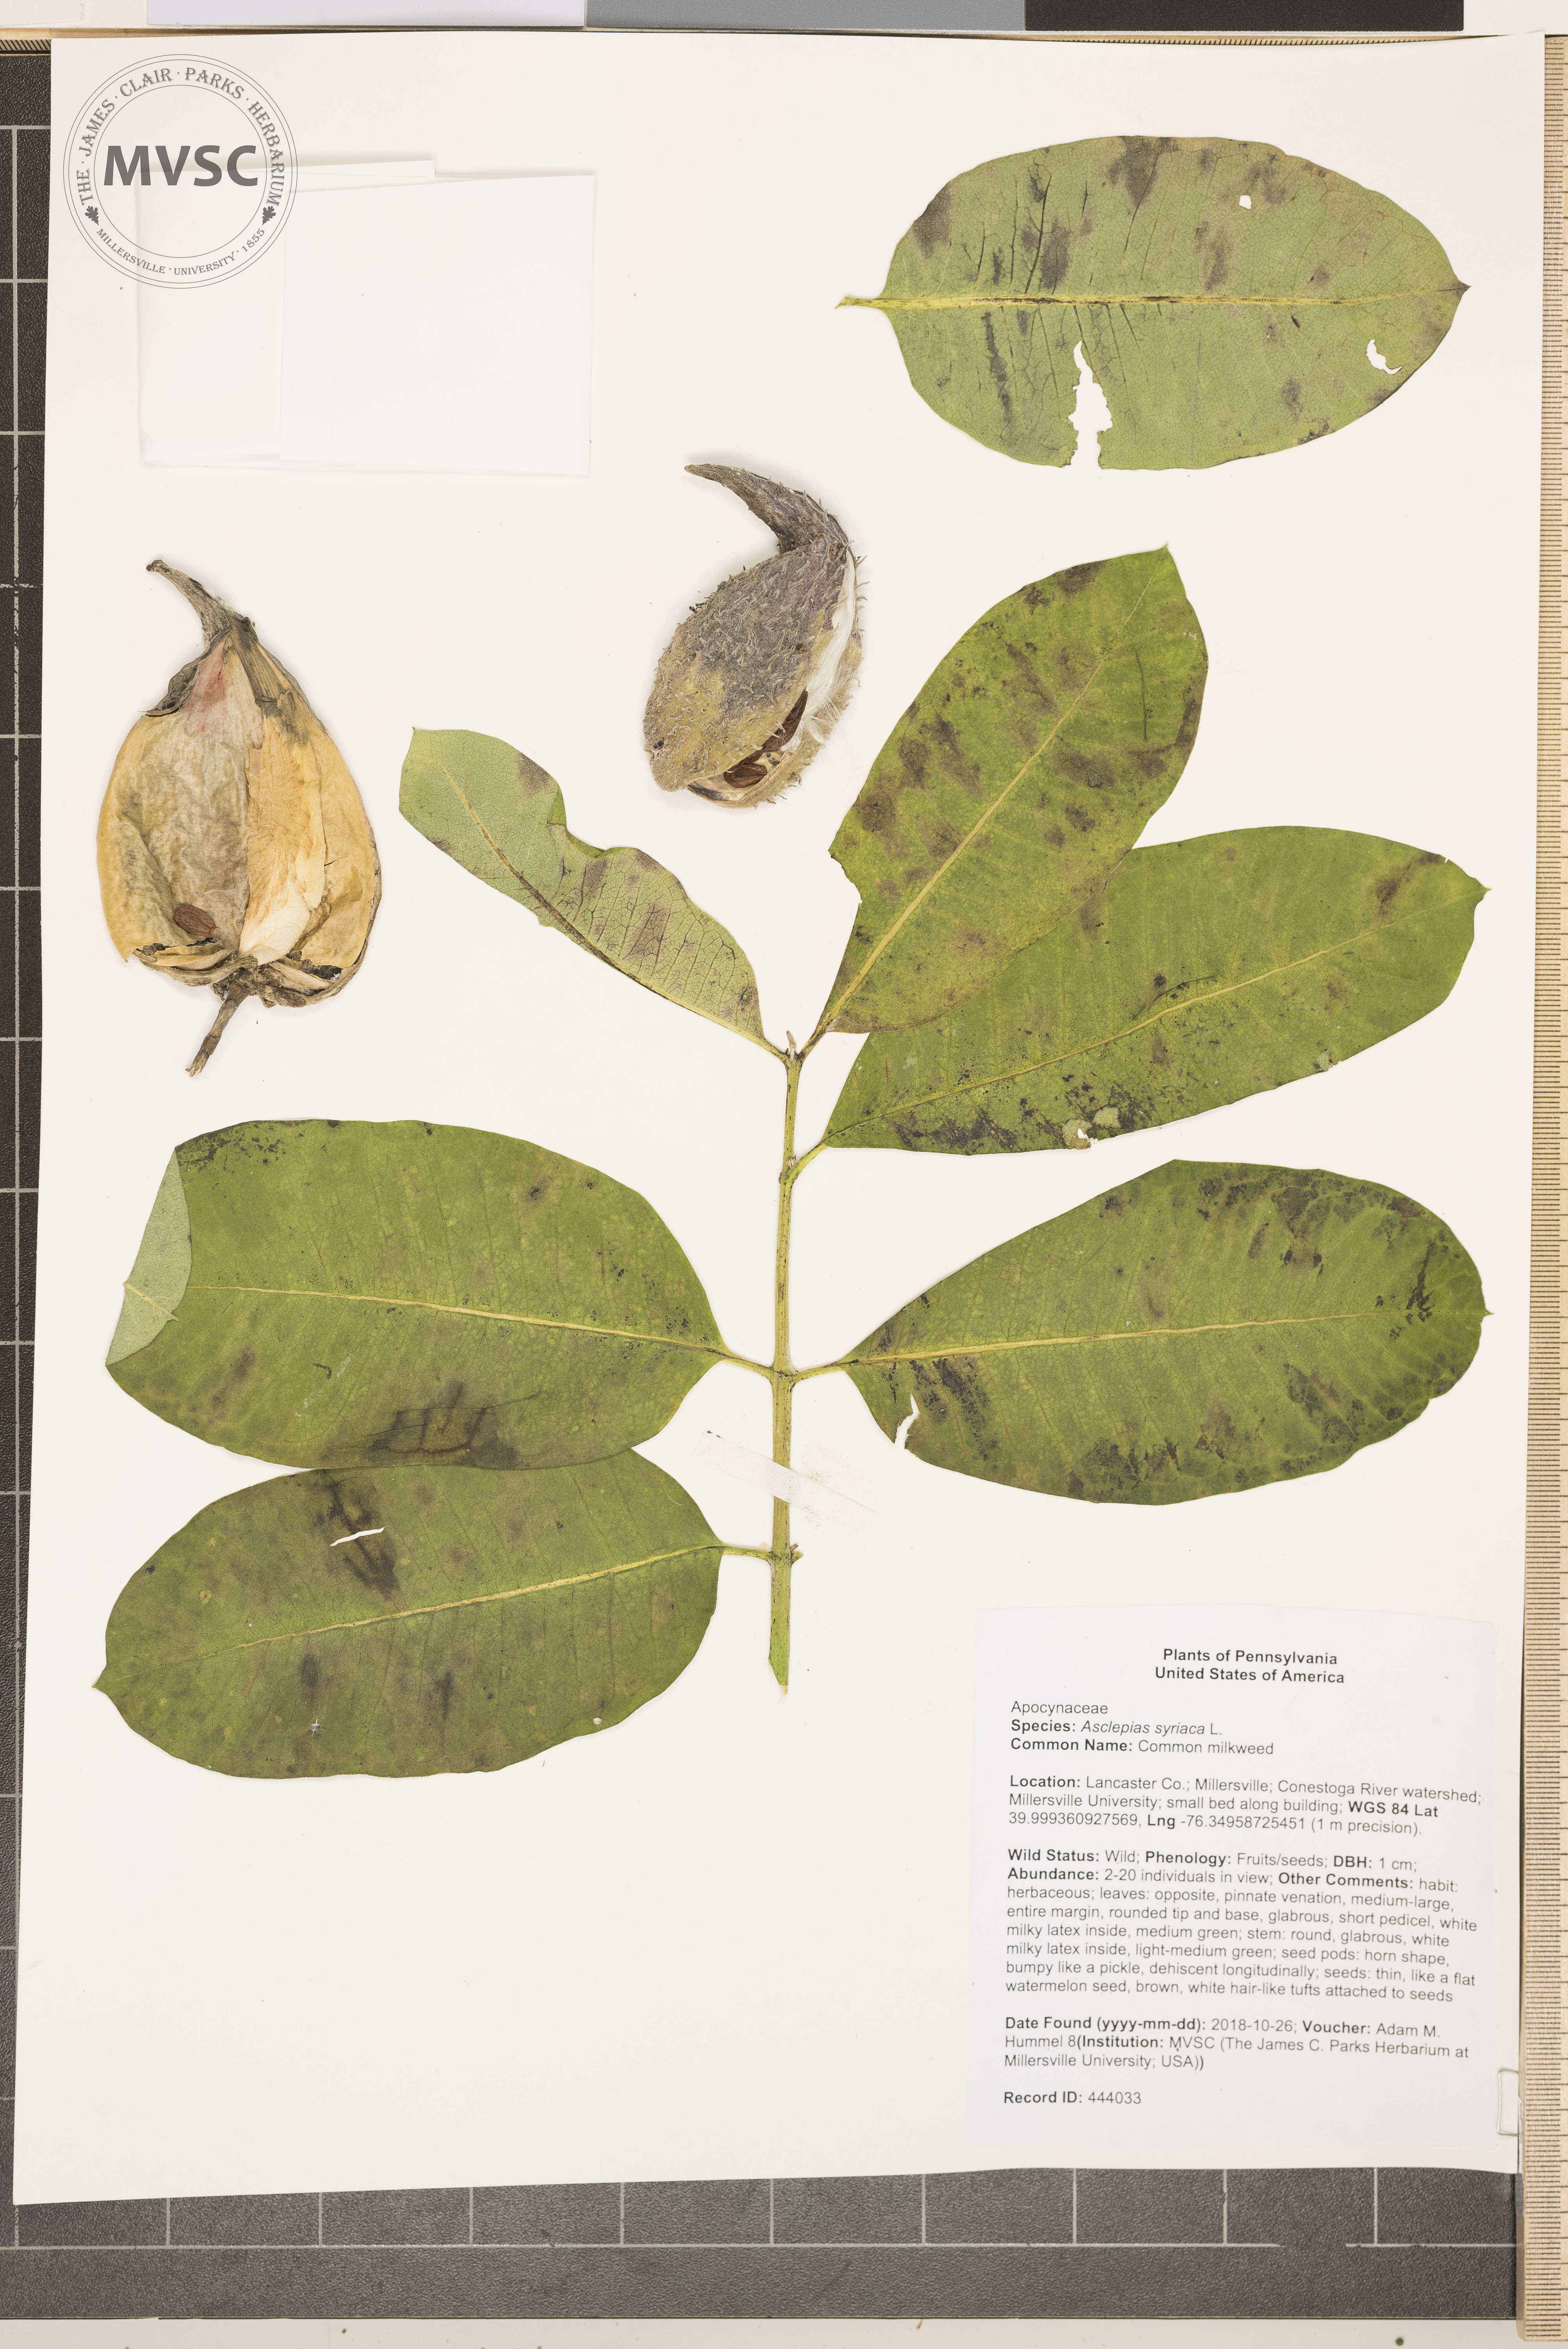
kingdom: Plantae
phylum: Tracheophyta
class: Magnoliopsida
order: Gentianales
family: Apocynaceae
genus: Asclepias
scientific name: Asclepias syriaca
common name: Common milkweed
